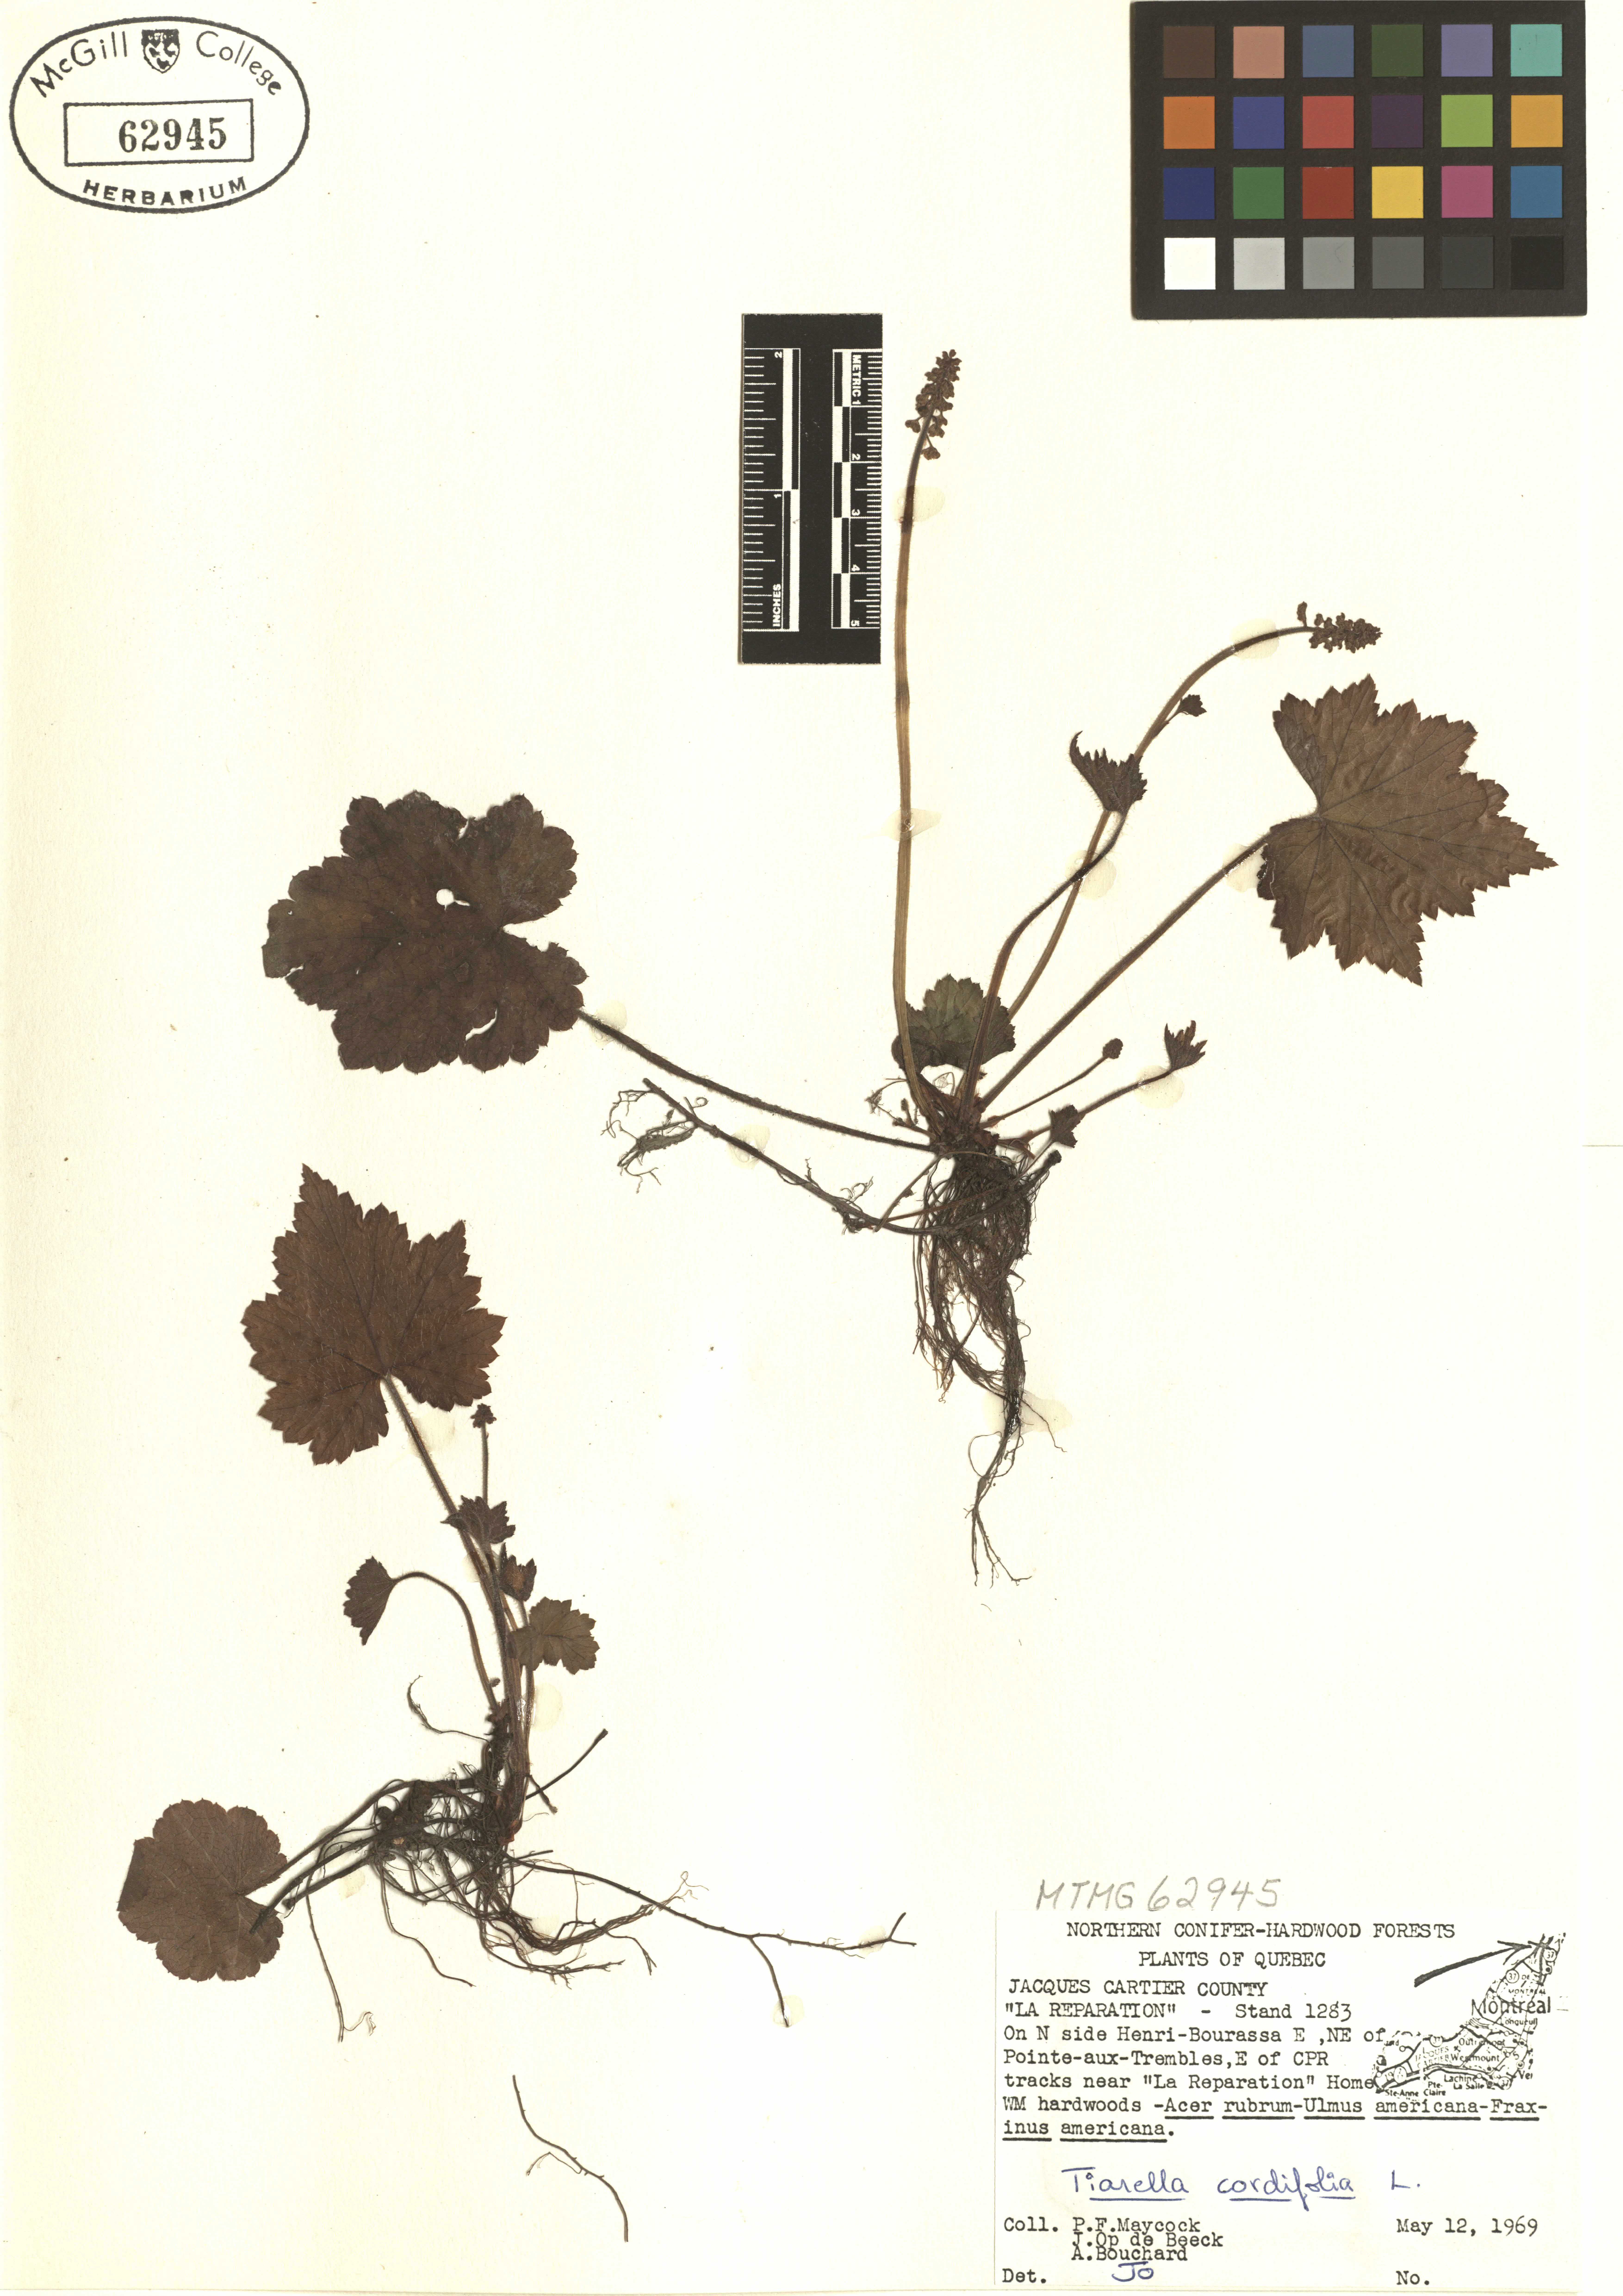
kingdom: Plantae
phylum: Tracheophyta
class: Magnoliopsida
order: Saxifragales
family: Saxifragaceae
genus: Tiarella
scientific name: Tiarella cordifolia
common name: Foamflower
